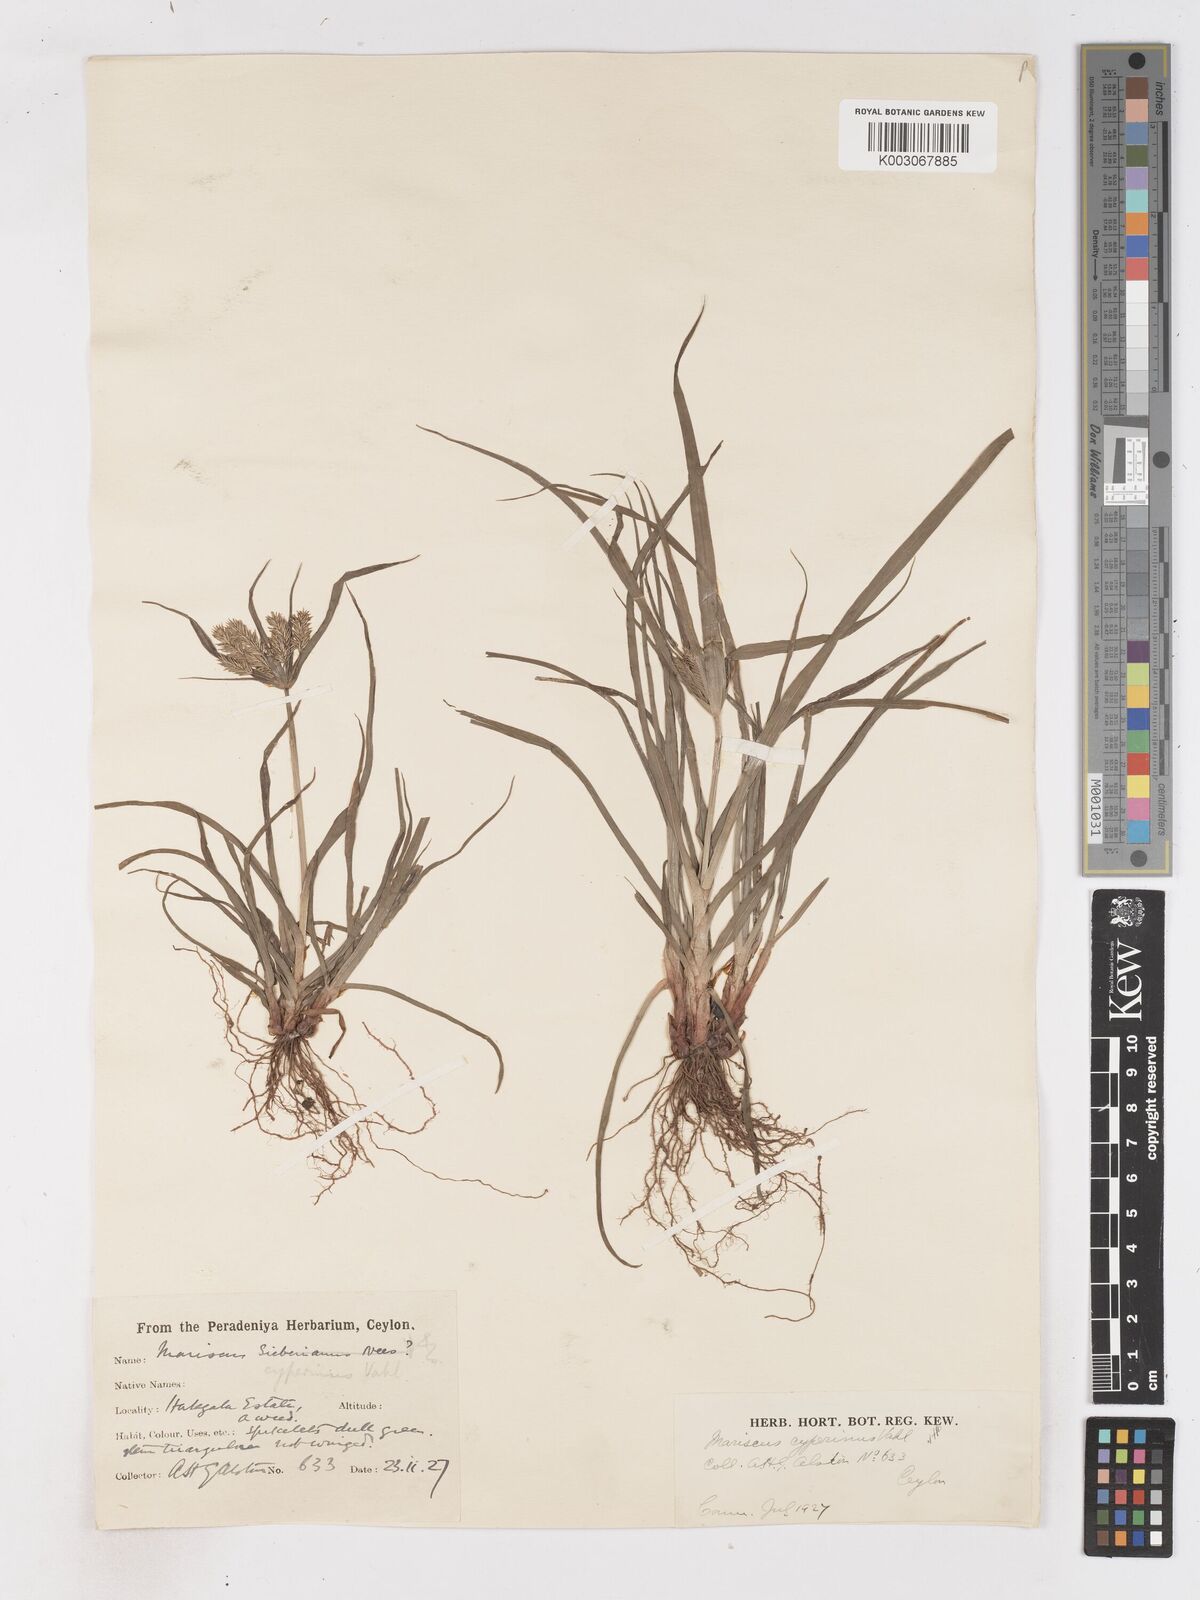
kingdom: Plantae
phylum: Tracheophyta
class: Liliopsida
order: Poales
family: Cyperaceae
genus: Cyperus
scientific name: Cyperus cyperinus
